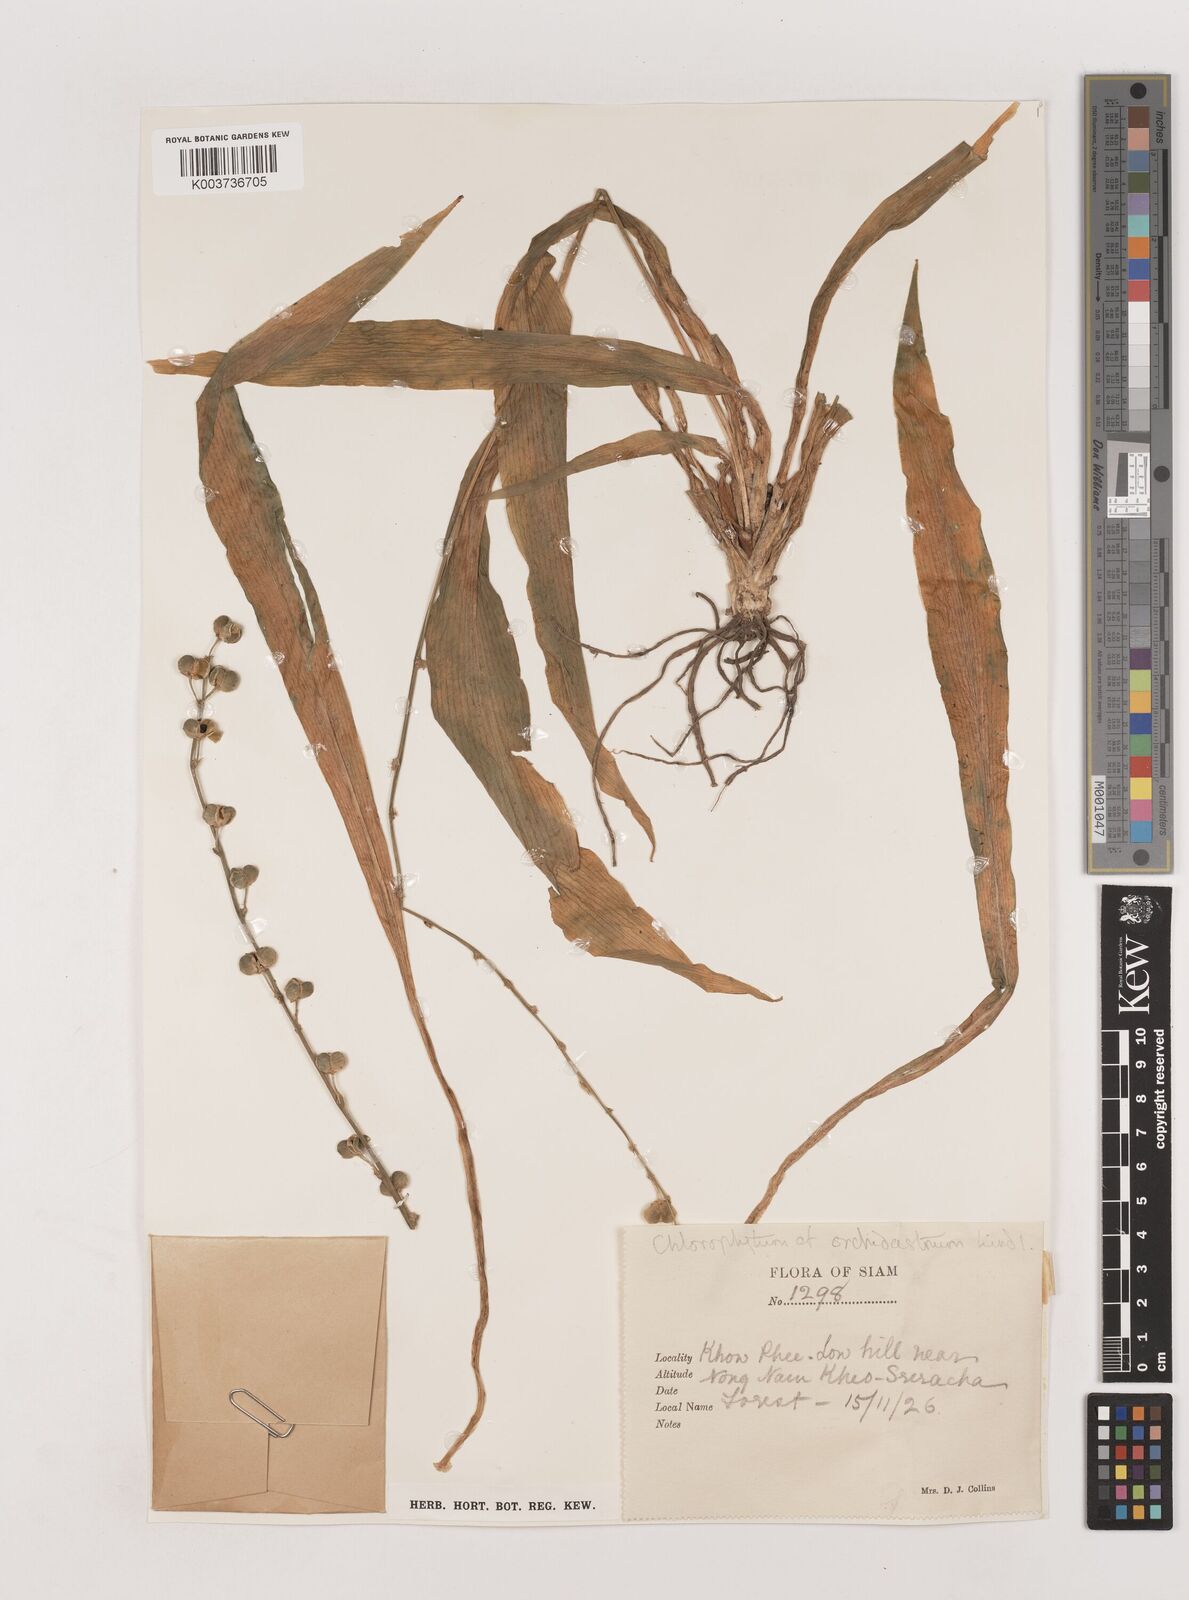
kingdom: Plantae
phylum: Tracheophyta
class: Liliopsida
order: Asparagales
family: Asparagaceae
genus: Chlorophytum
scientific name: Chlorophytum orchidastrum
